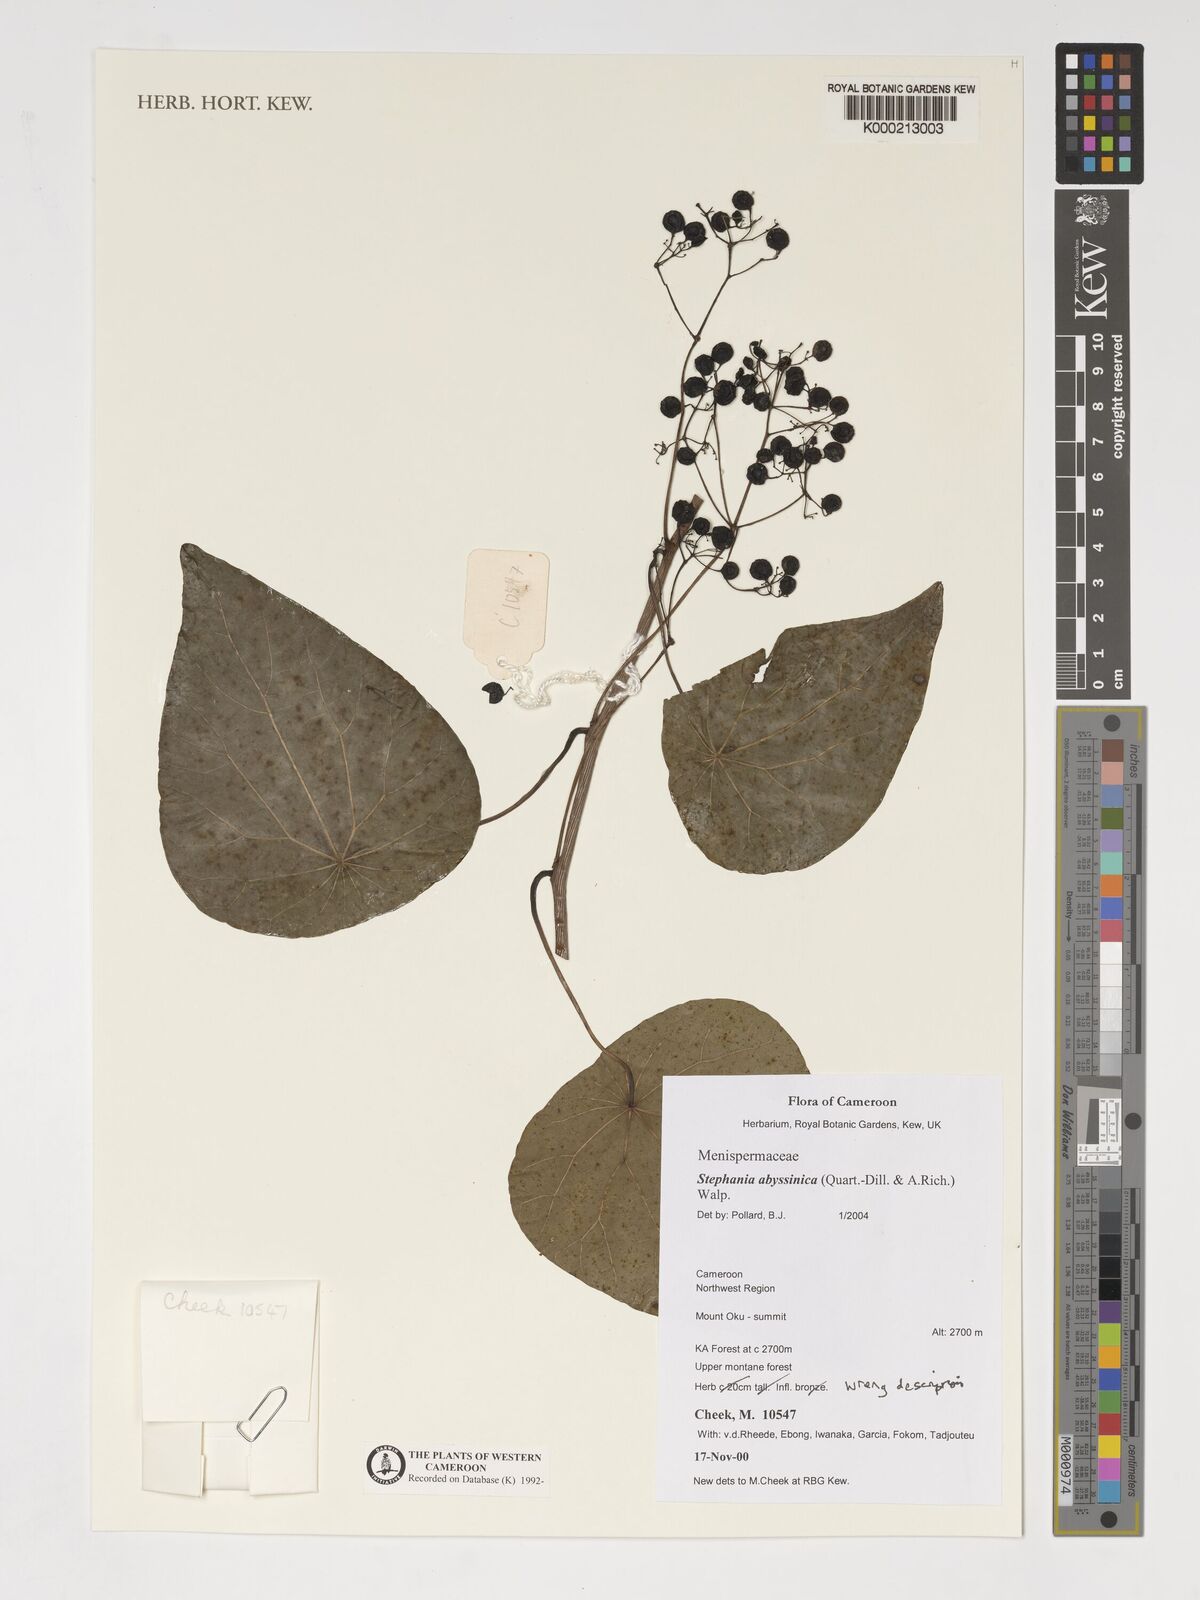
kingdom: Plantae
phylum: Tracheophyta
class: Magnoliopsida
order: Ranunculales
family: Menispermaceae
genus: Stephania
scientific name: Stephania
